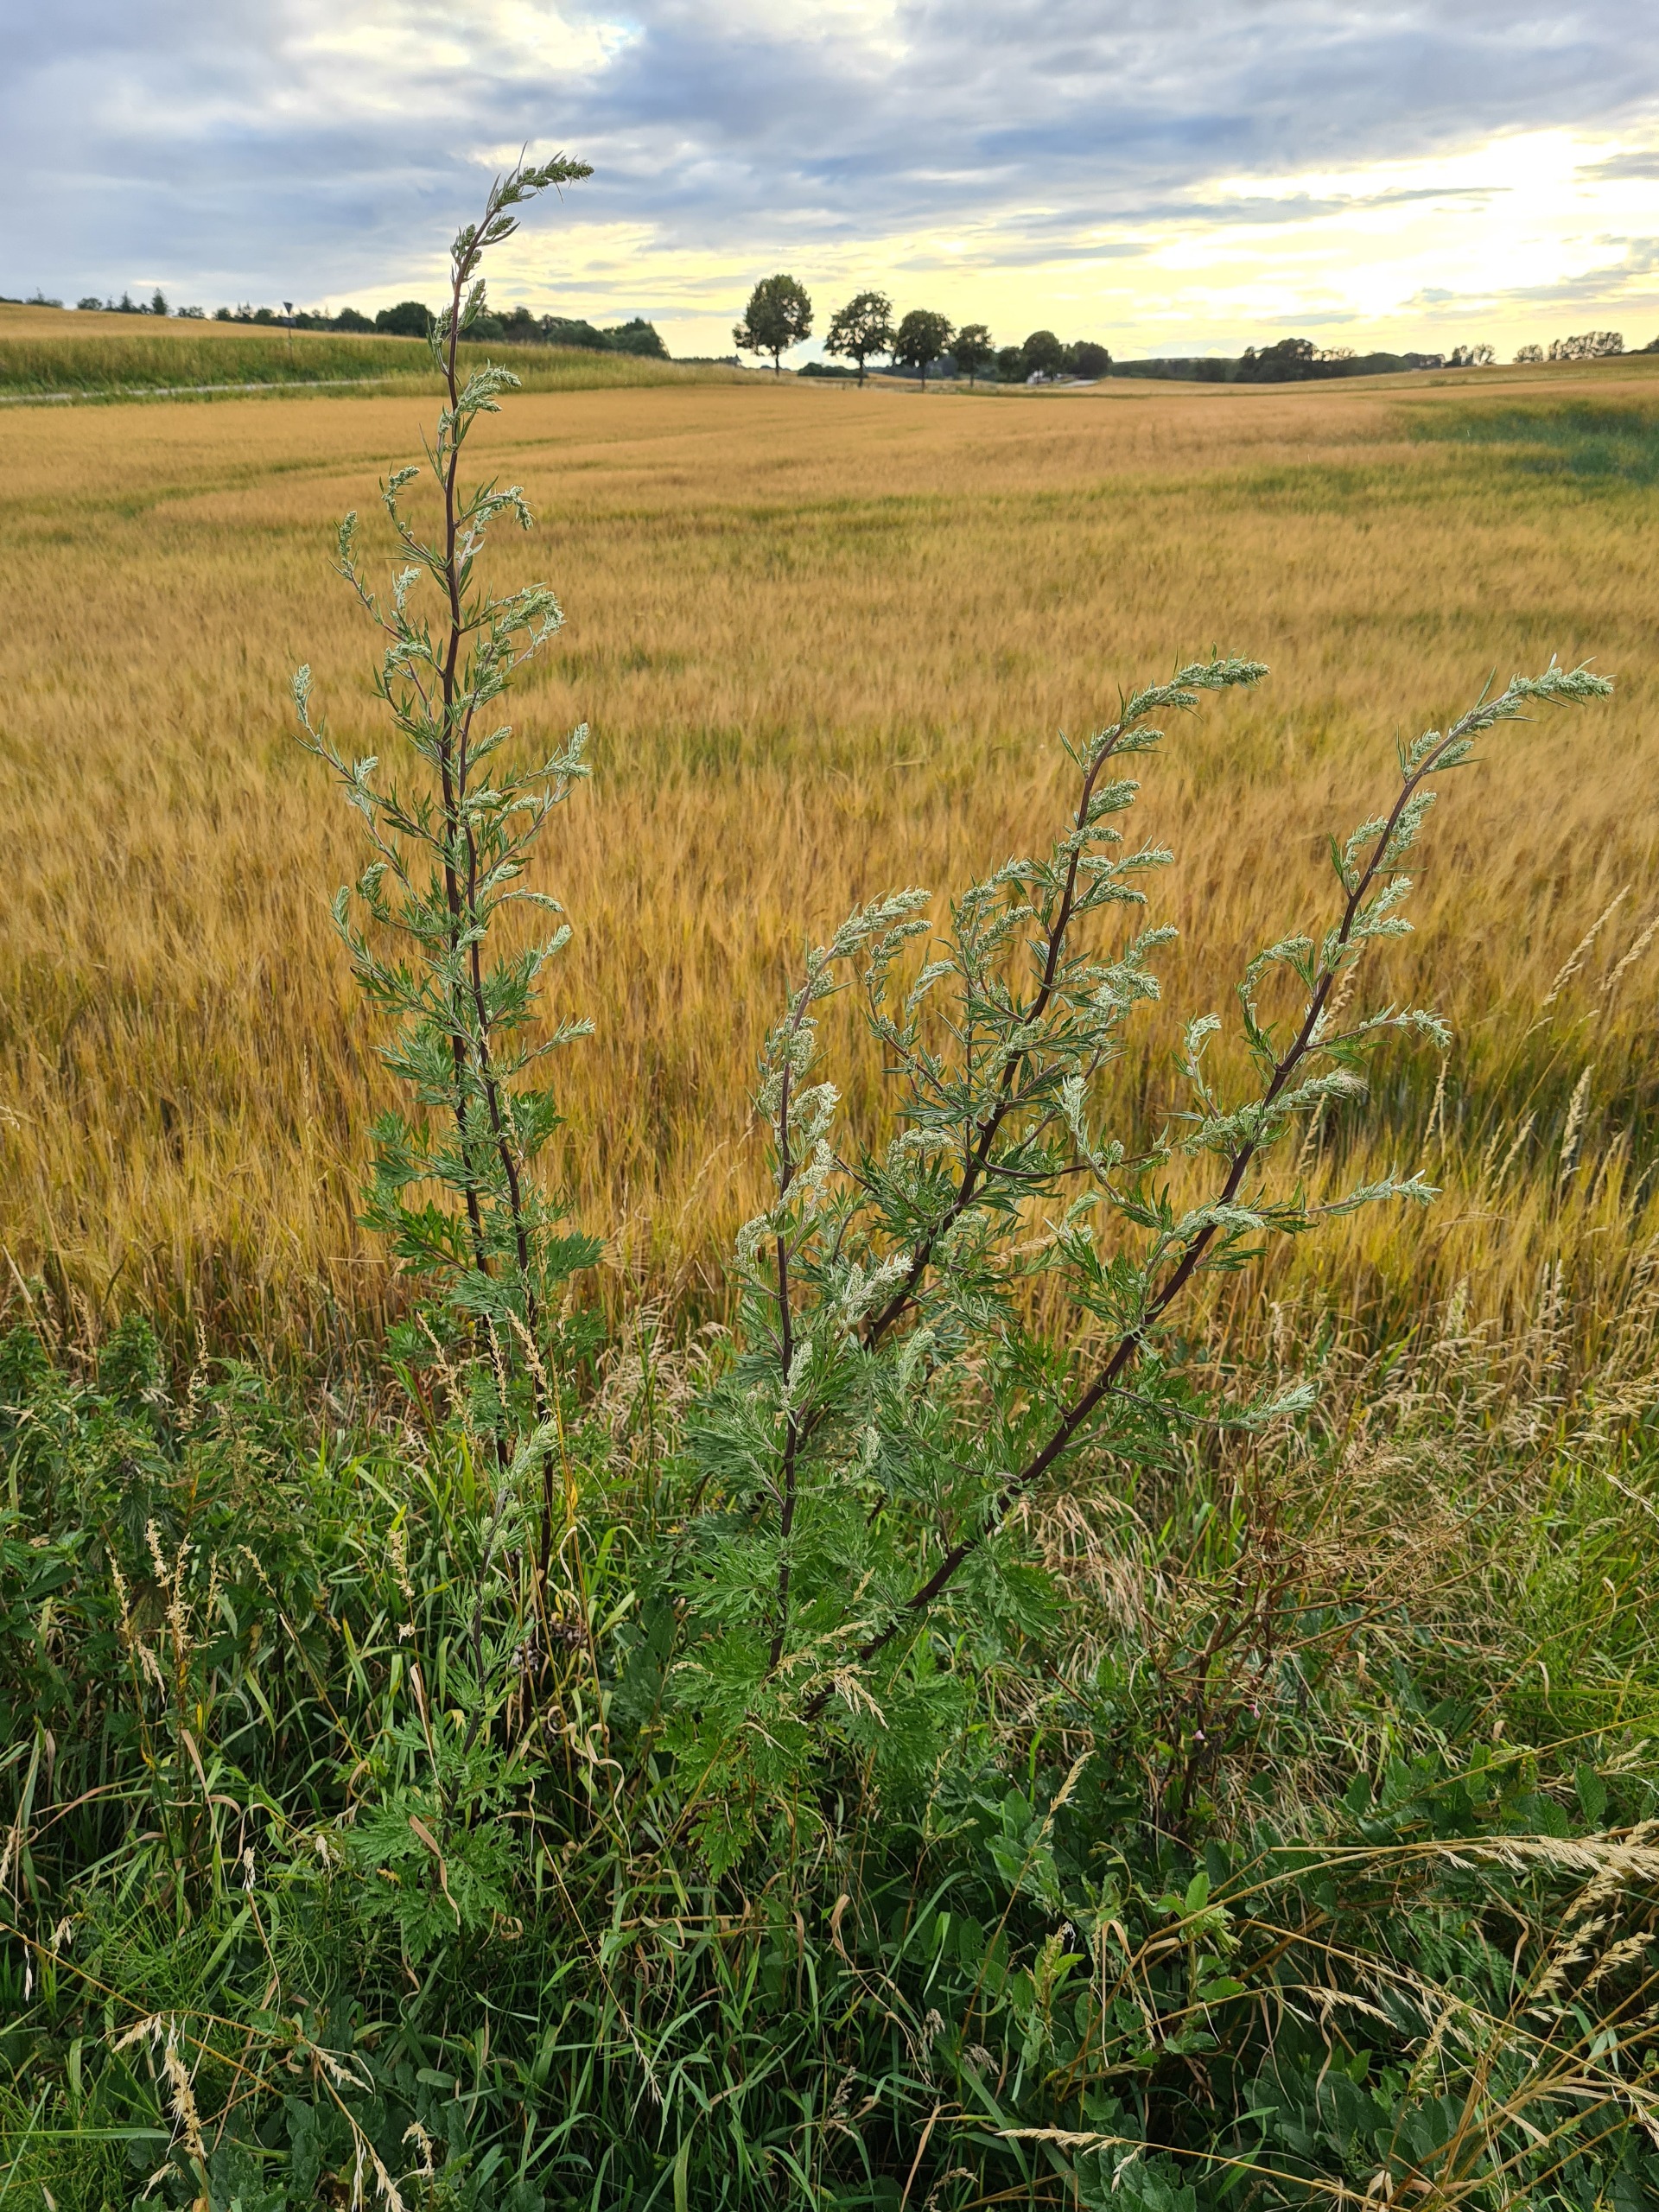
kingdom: Plantae
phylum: Tracheophyta
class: Magnoliopsida
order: Asterales
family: Asteraceae
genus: Artemisia
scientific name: Artemisia vulgaris
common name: Grå-bynke
